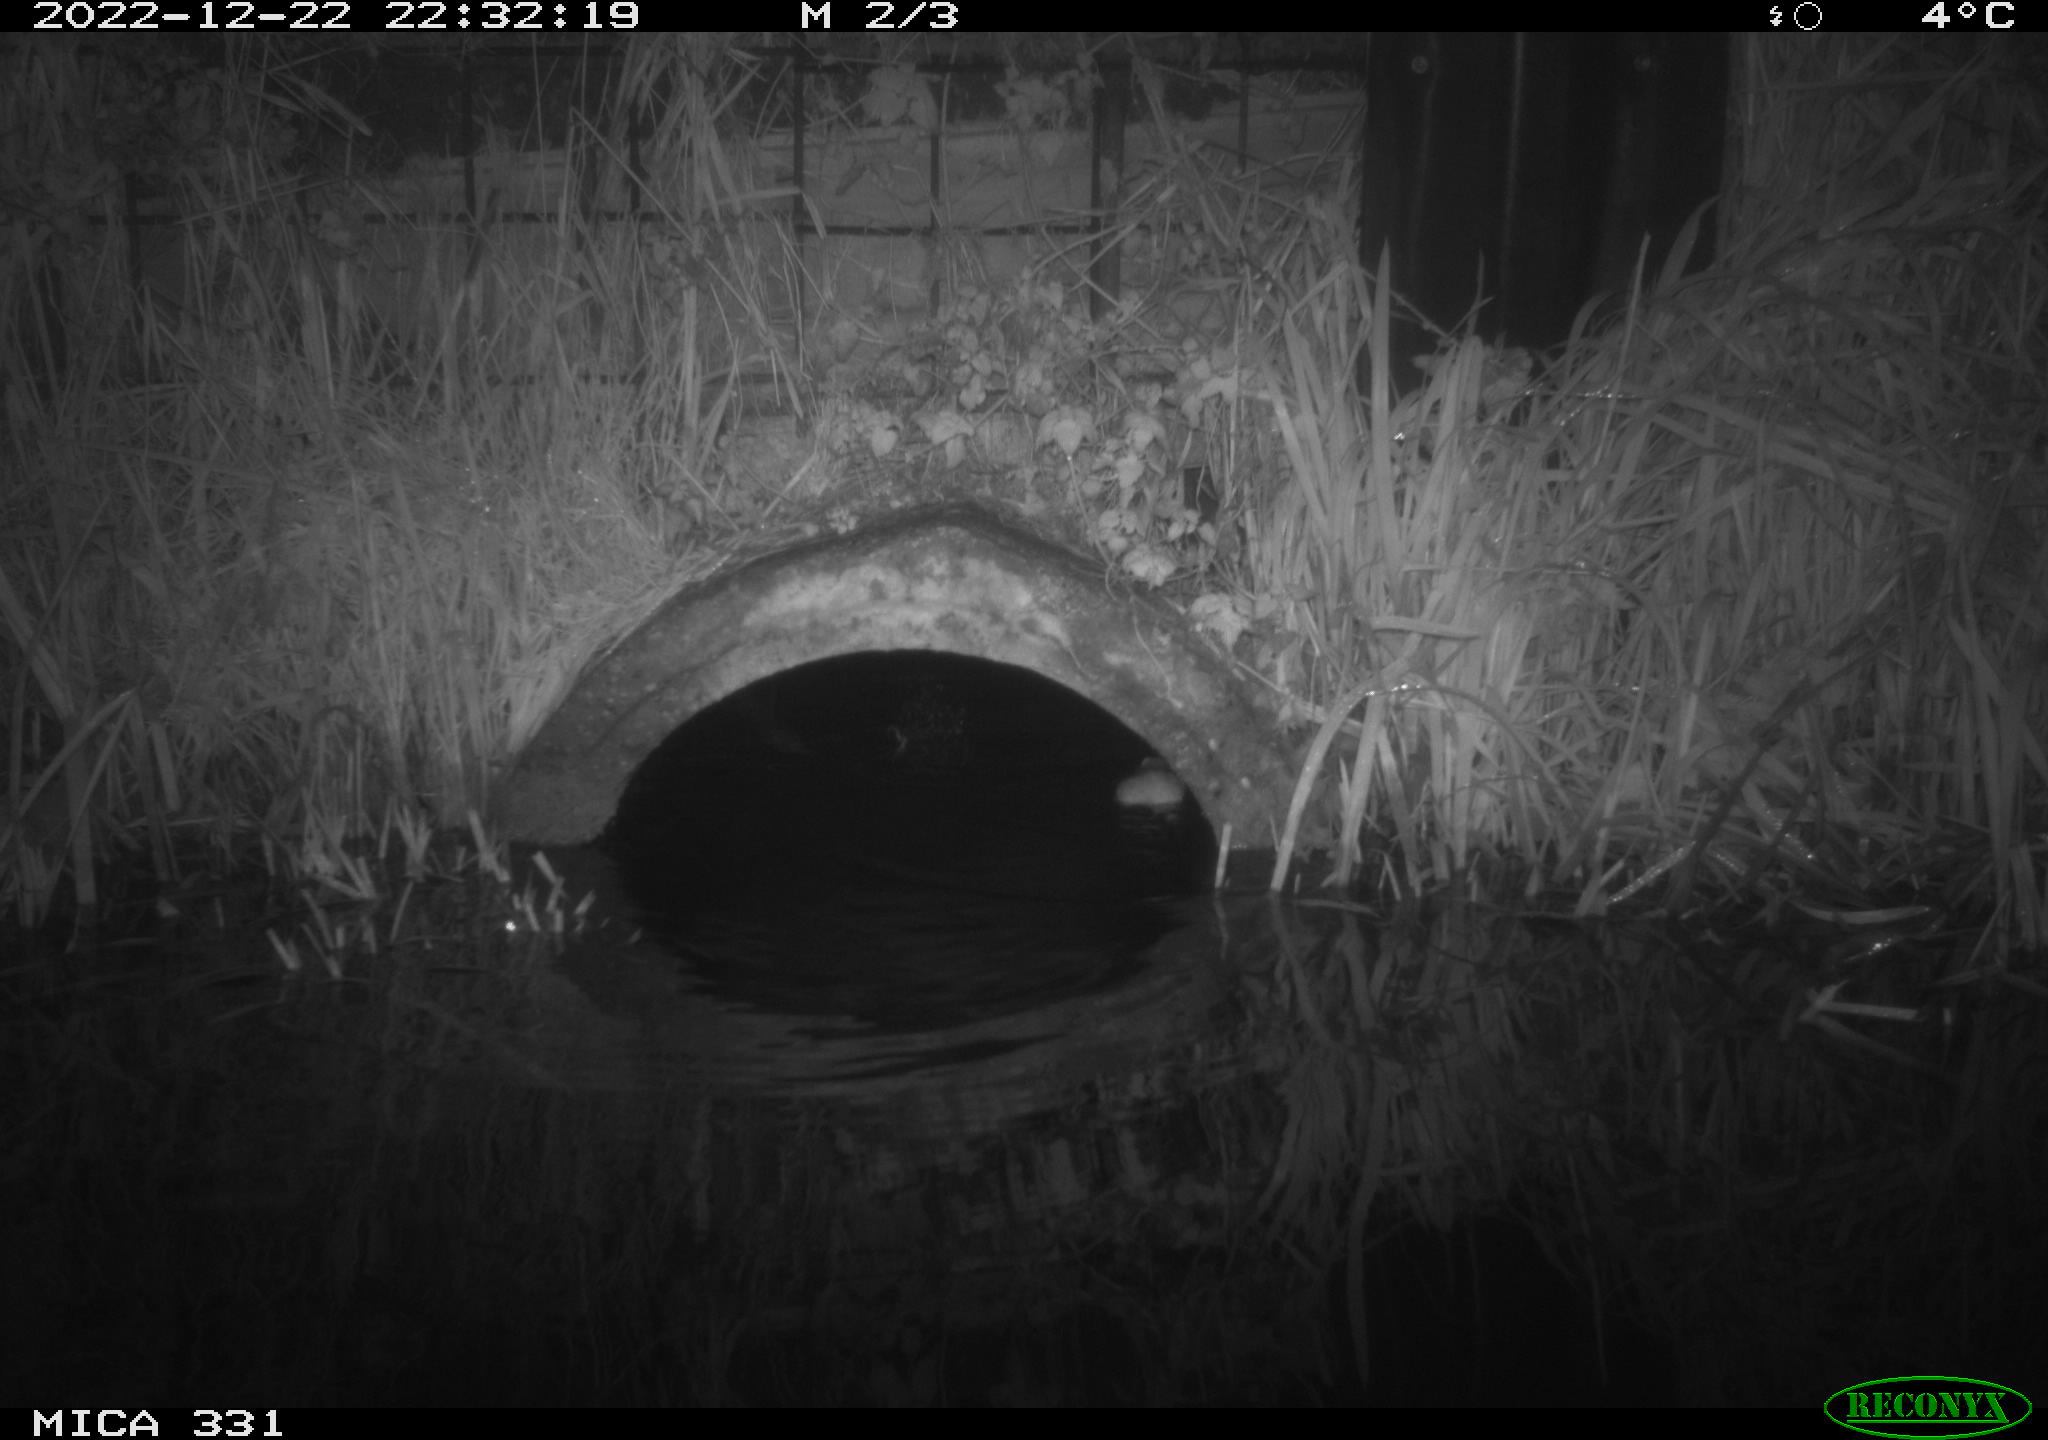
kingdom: Animalia
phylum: Chordata
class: Mammalia
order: Rodentia
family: Muridae
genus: Rattus
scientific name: Rattus norvegicus
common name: Brown rat
